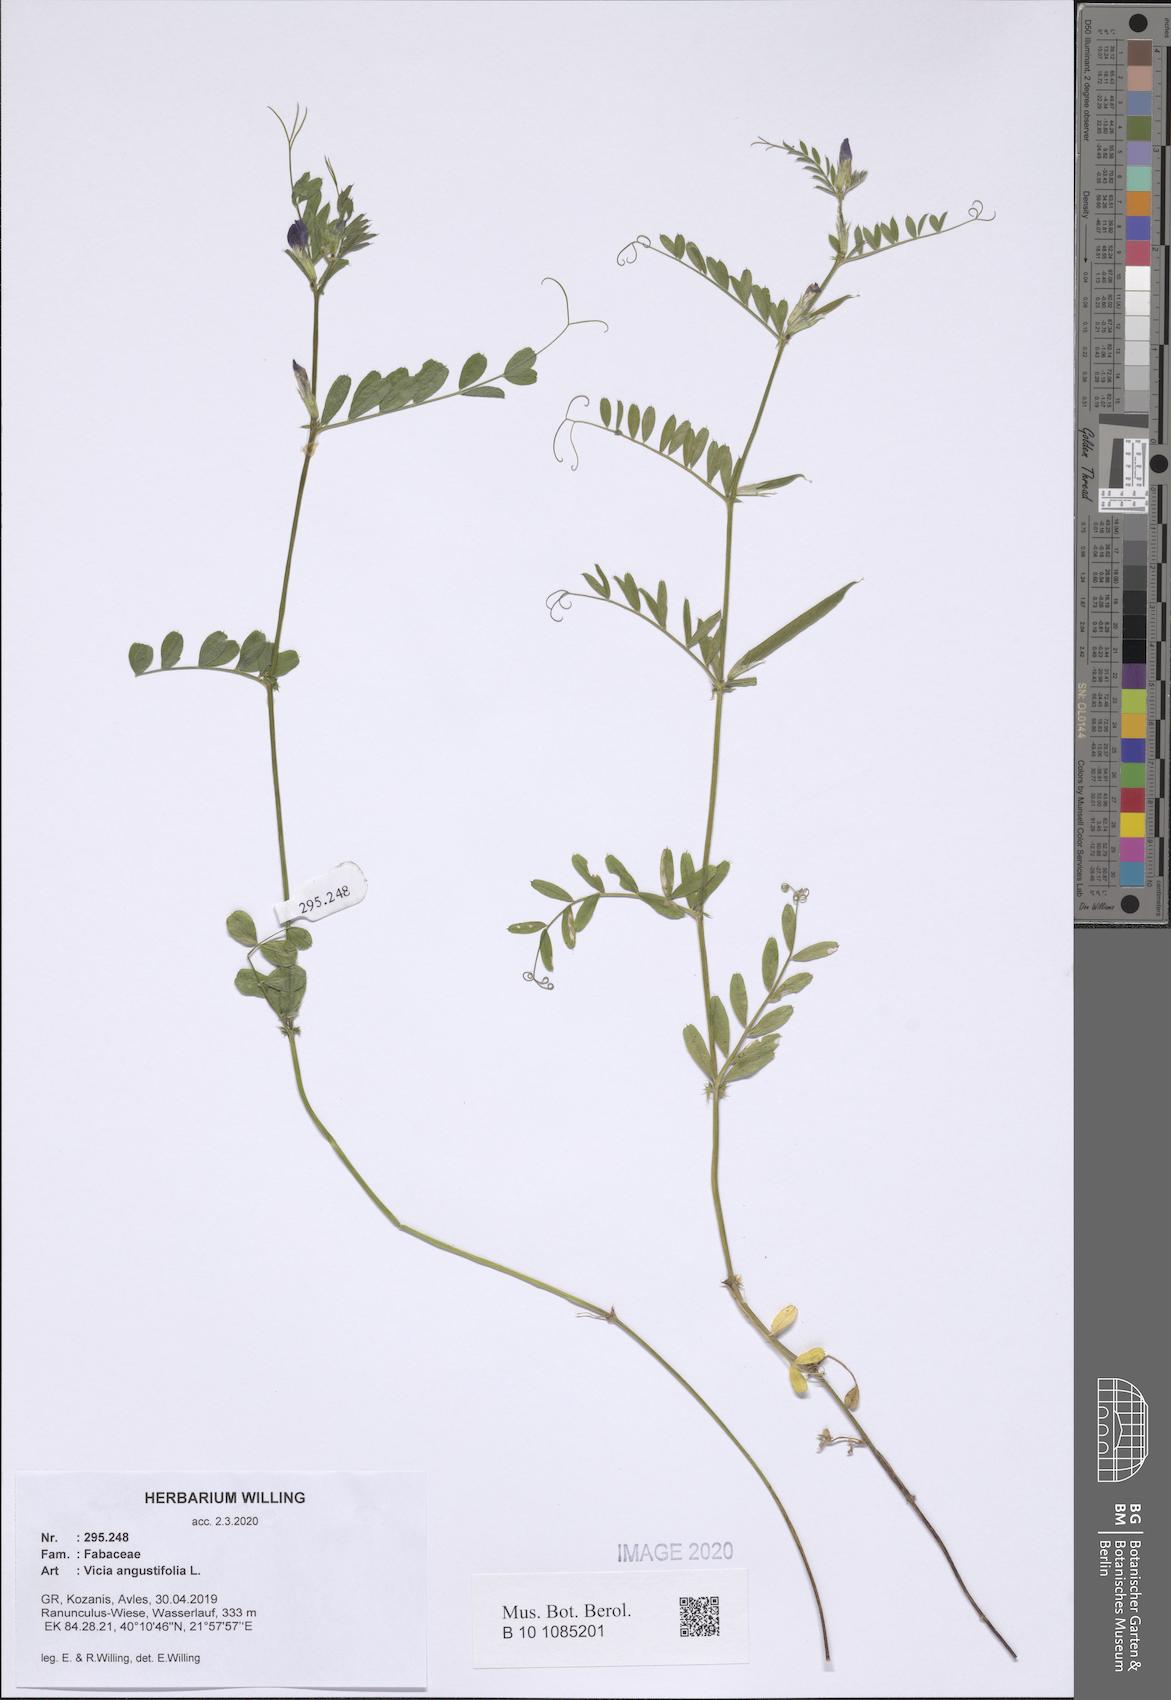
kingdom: Plantae
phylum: Tracheophyta
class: Magnoliopsida
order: Fabales
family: Fabaceae
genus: Vicia
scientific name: Vicia sativa
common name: Garden vetch
